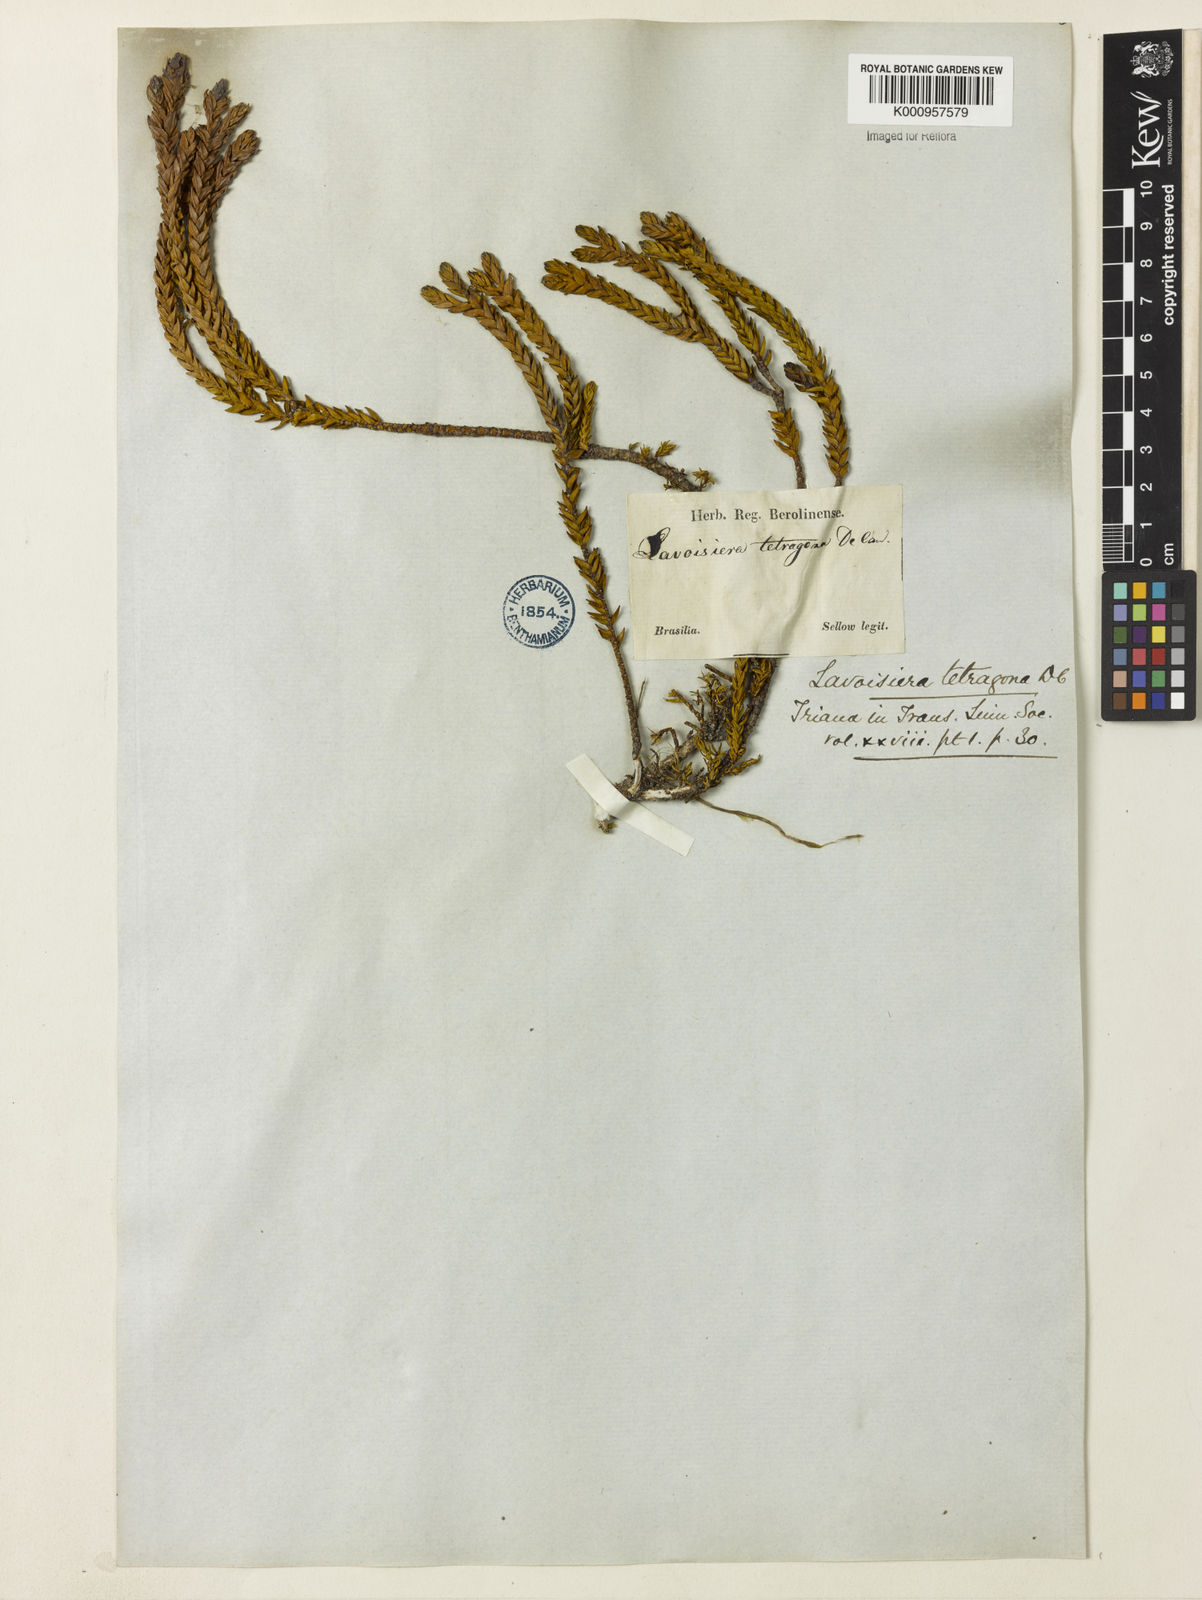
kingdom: Plantae
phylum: Tracheophyta
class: Magnoliopsida
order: Myrtales
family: Melastomataceae
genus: Microlicia
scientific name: Microlicia tetragona
